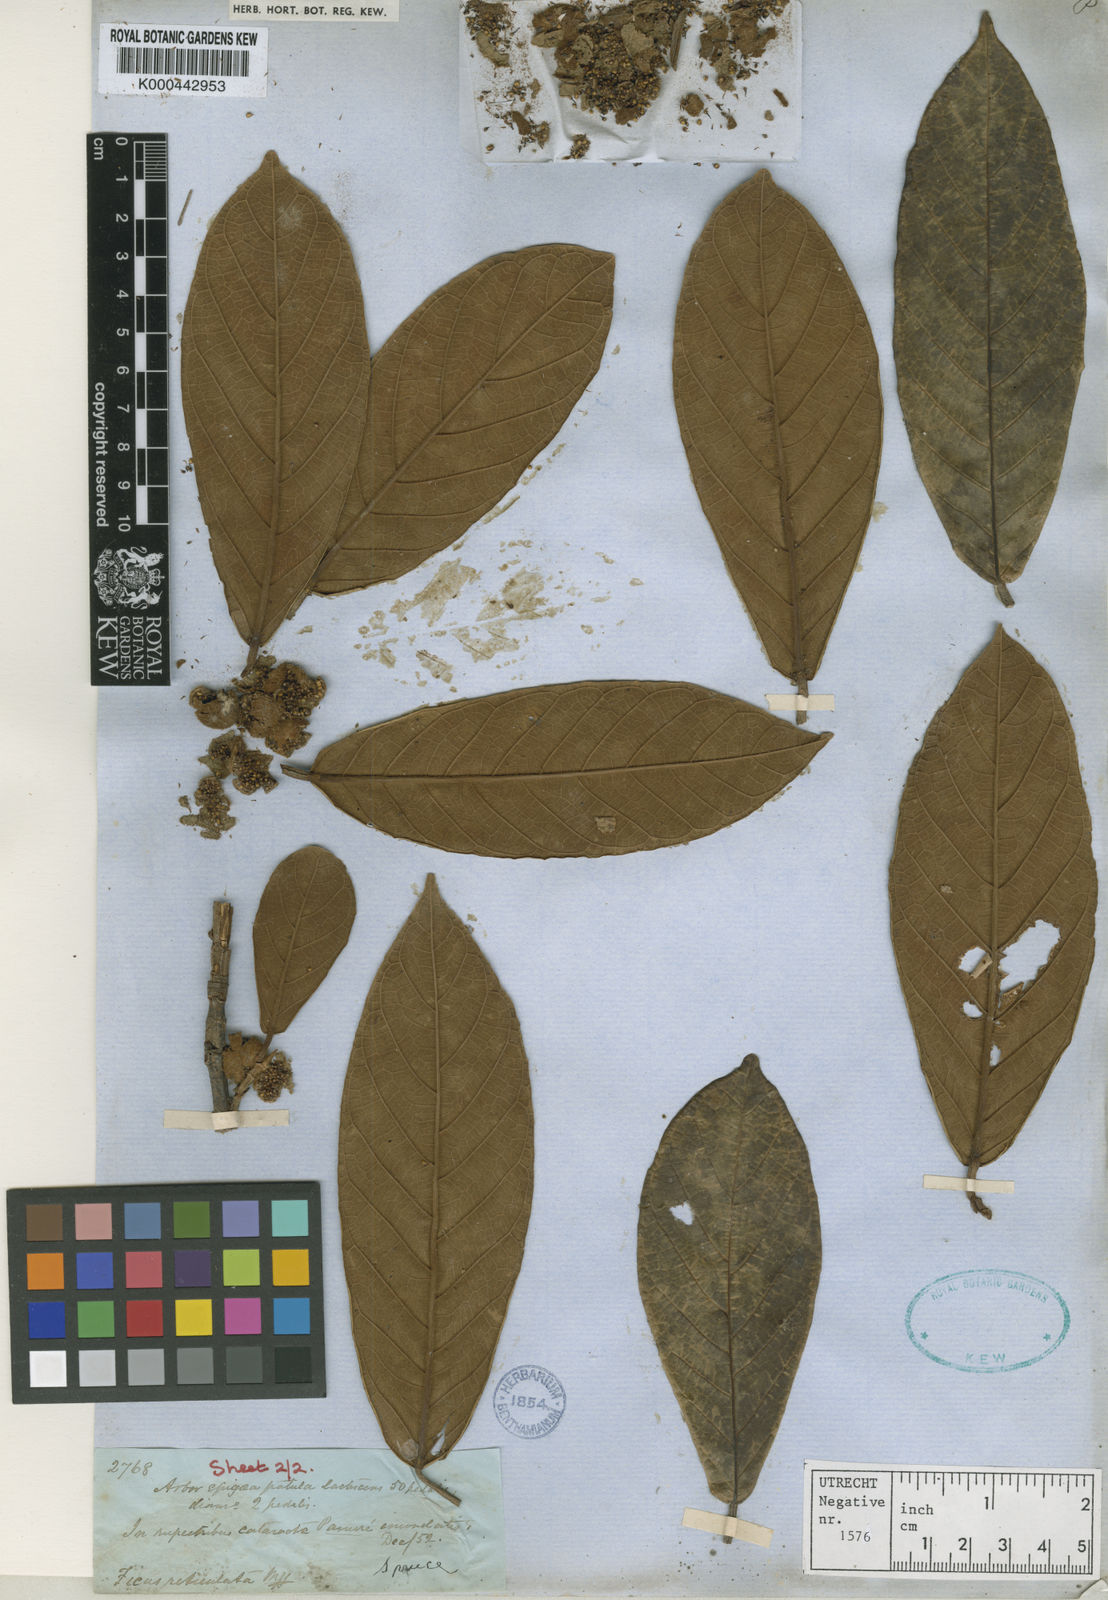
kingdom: Plantae
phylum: Tracheophyta
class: Magnoliopsida
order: Rosales
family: Moraceae
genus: Ficus
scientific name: Ficus trigona
